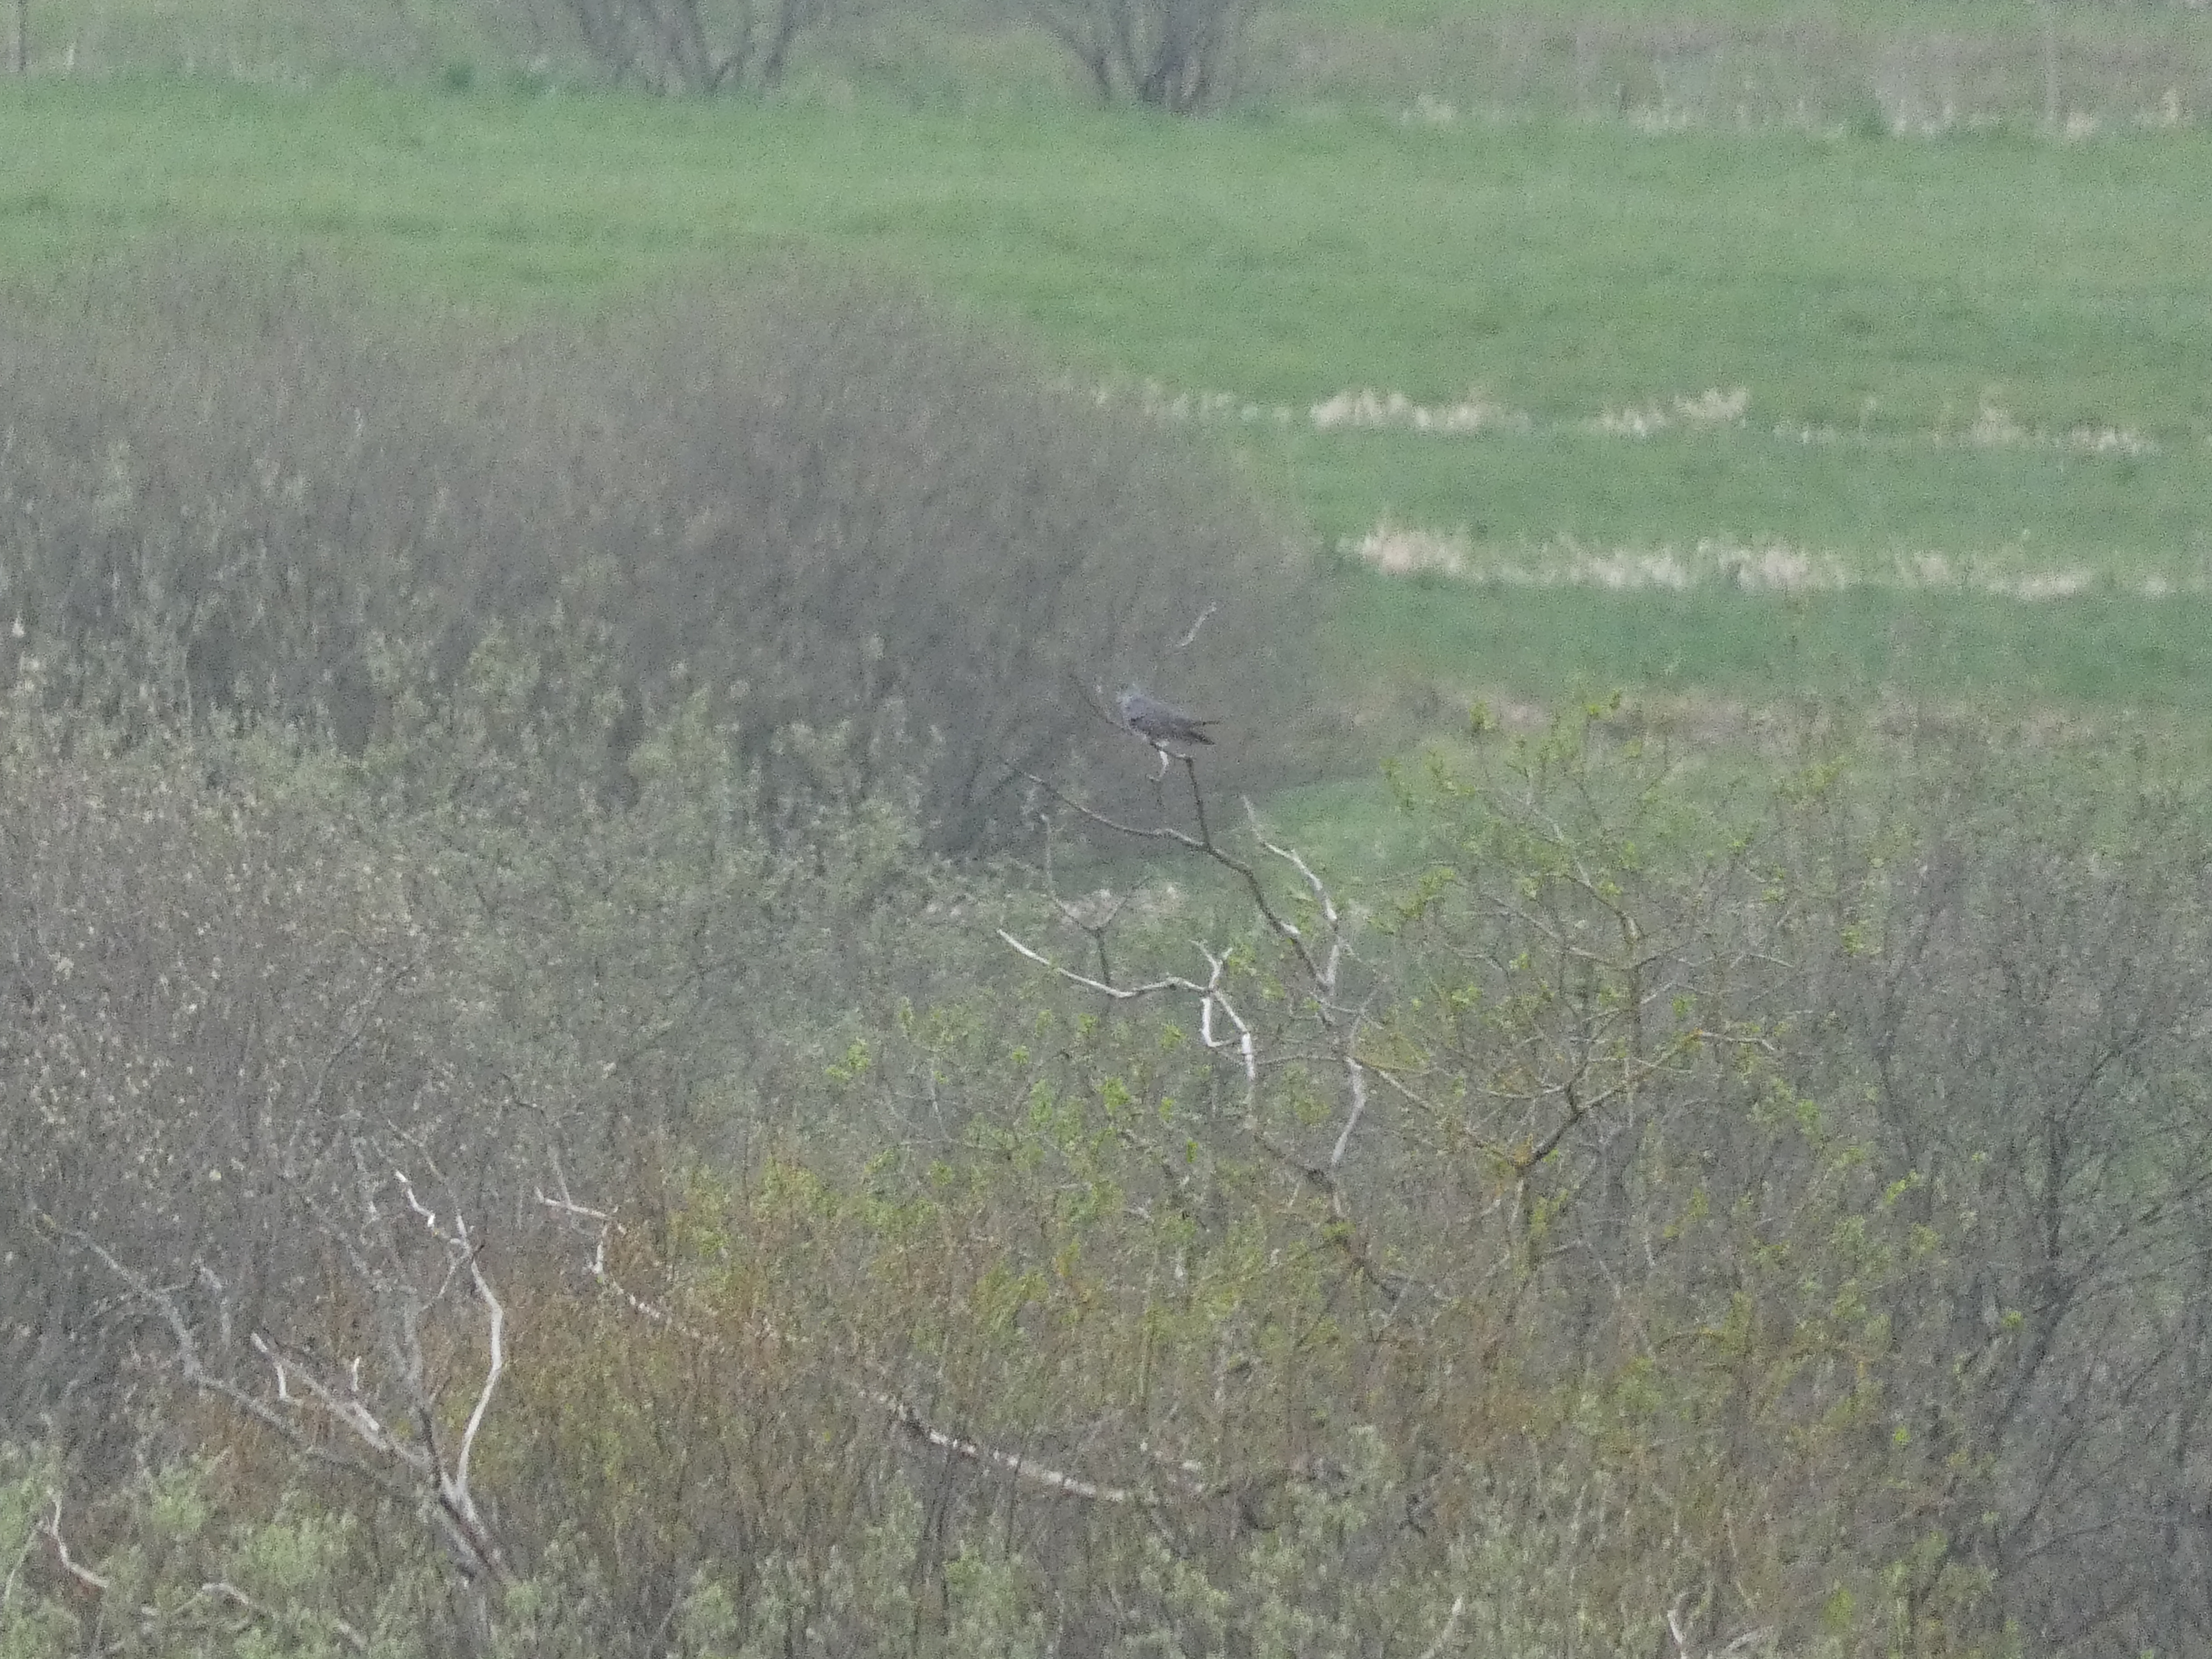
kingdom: Animalia
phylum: Chordata
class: Aves
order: Cuculiformes
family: Cuculidae
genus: Cuculus
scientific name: Cuculus canorus
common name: Gøg
